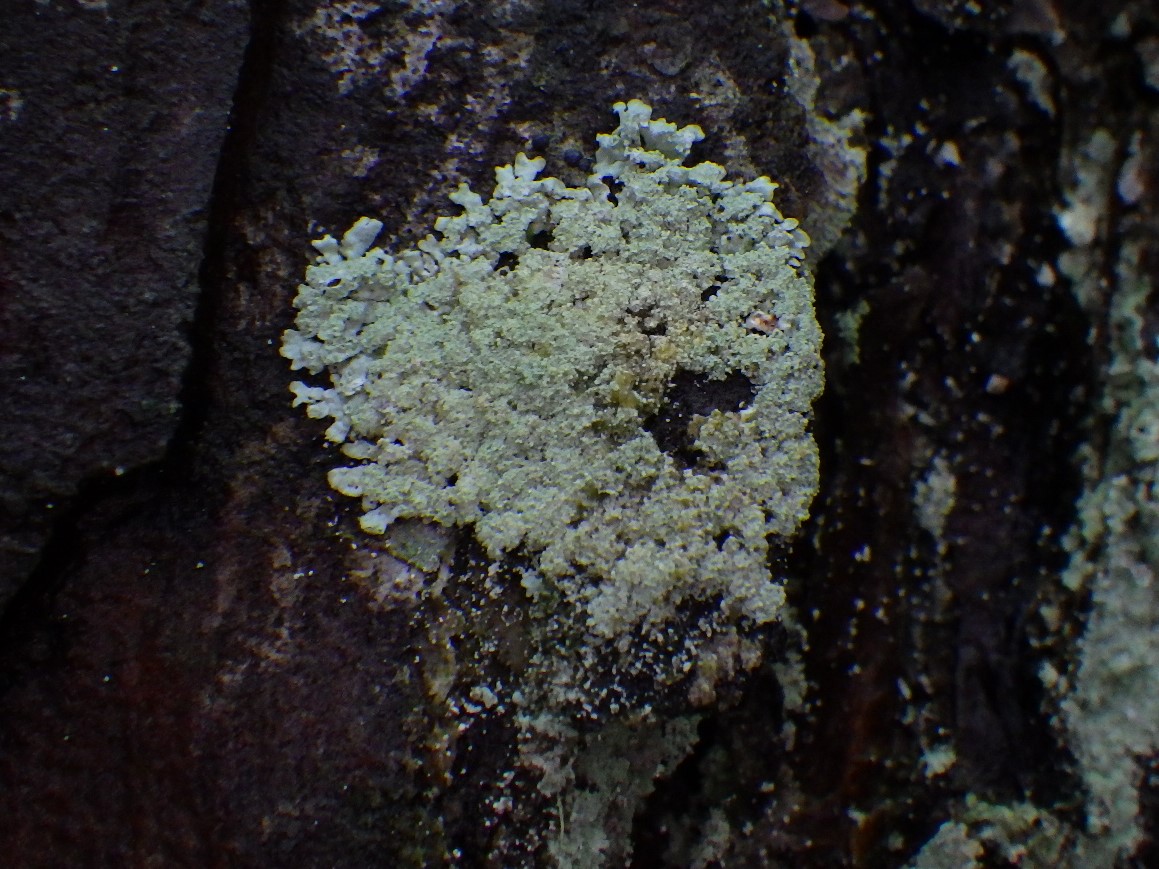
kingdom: Fungi
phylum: Ascomycota
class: Lecanoromycetes
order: Lecanorales
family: Parmeliaceae
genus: Parmeliopsis
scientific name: Parmeliopsis hyperopta
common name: grå stolpelav
